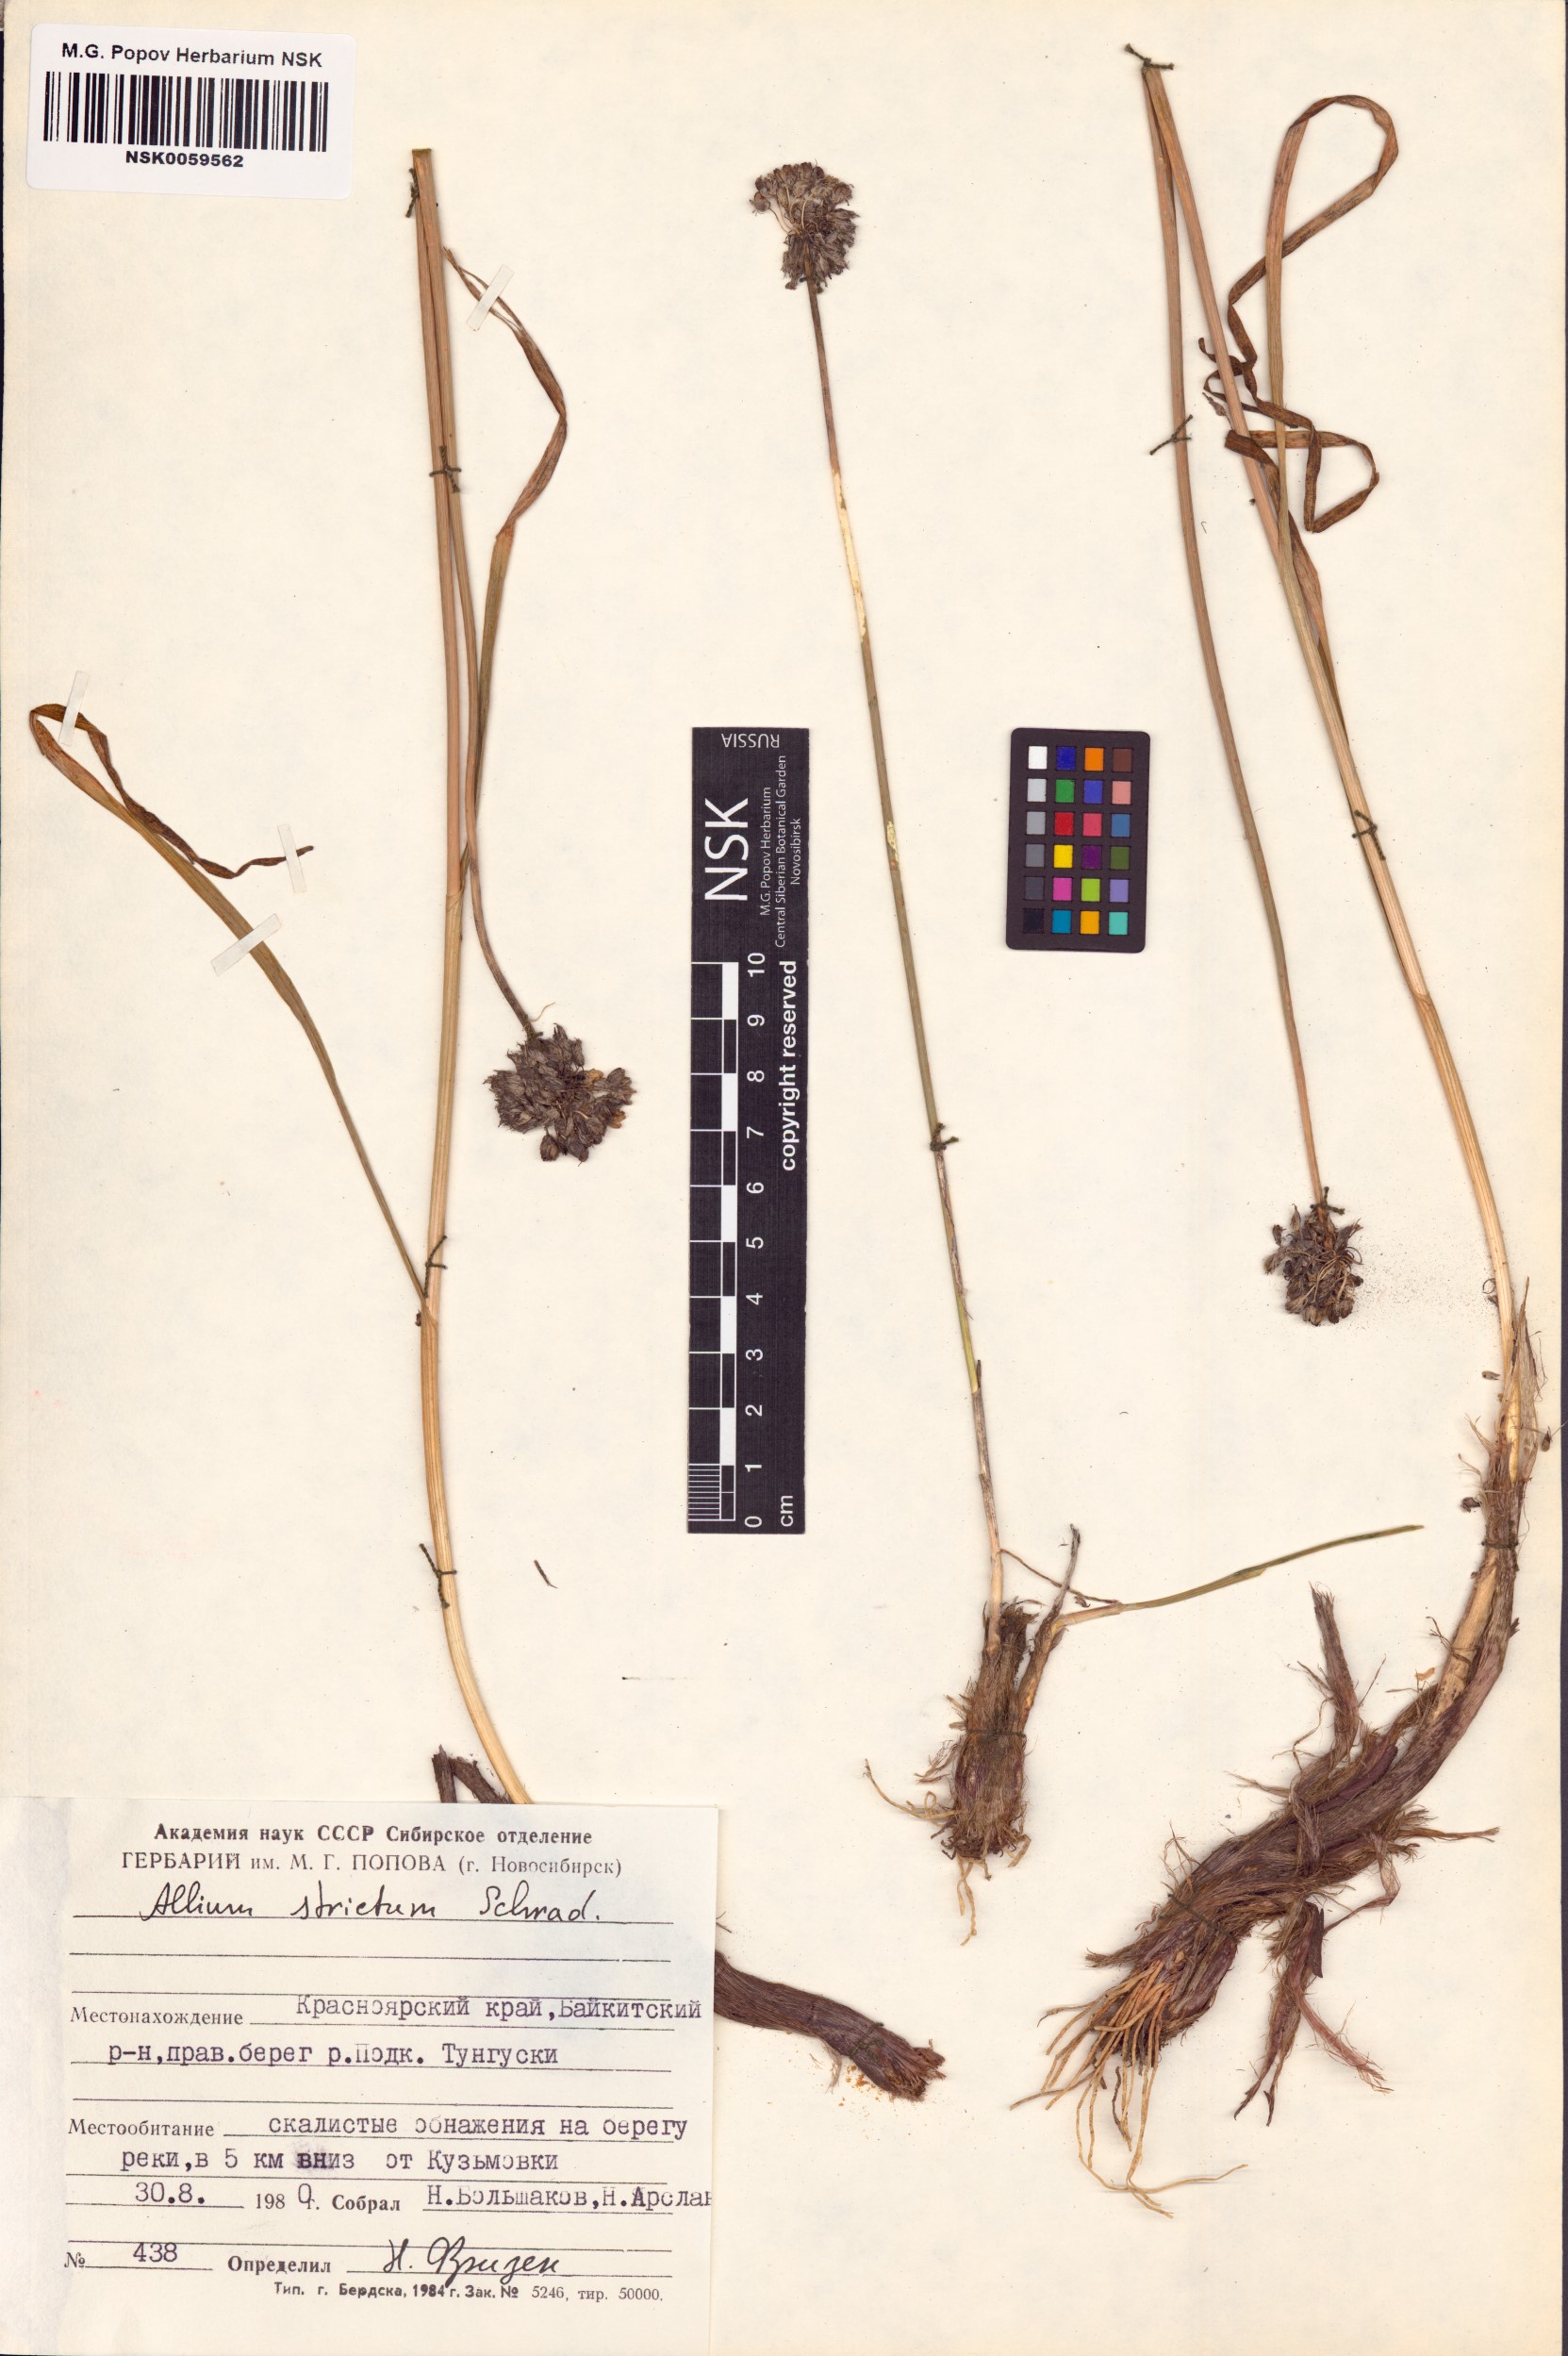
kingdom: Plantae
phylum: Tracheophyta
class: Liliopsida
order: Asparagales
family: Amaryllidaceae
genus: Allium
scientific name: Allium strictum
